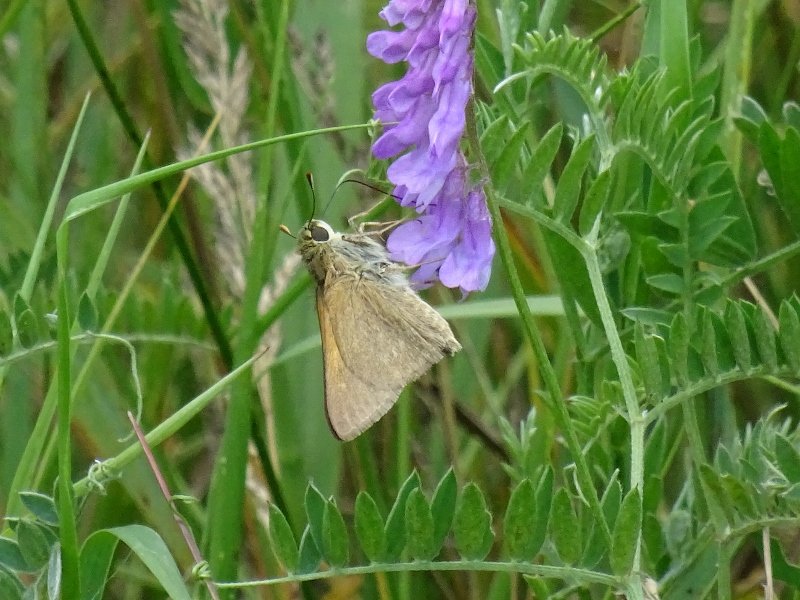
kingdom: Animalia
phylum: Arthropoda
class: Insecta
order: Lepidoptera
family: Hesperiidae
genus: Polites
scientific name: Polites themistocles
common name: Tawny-edged Skipper
